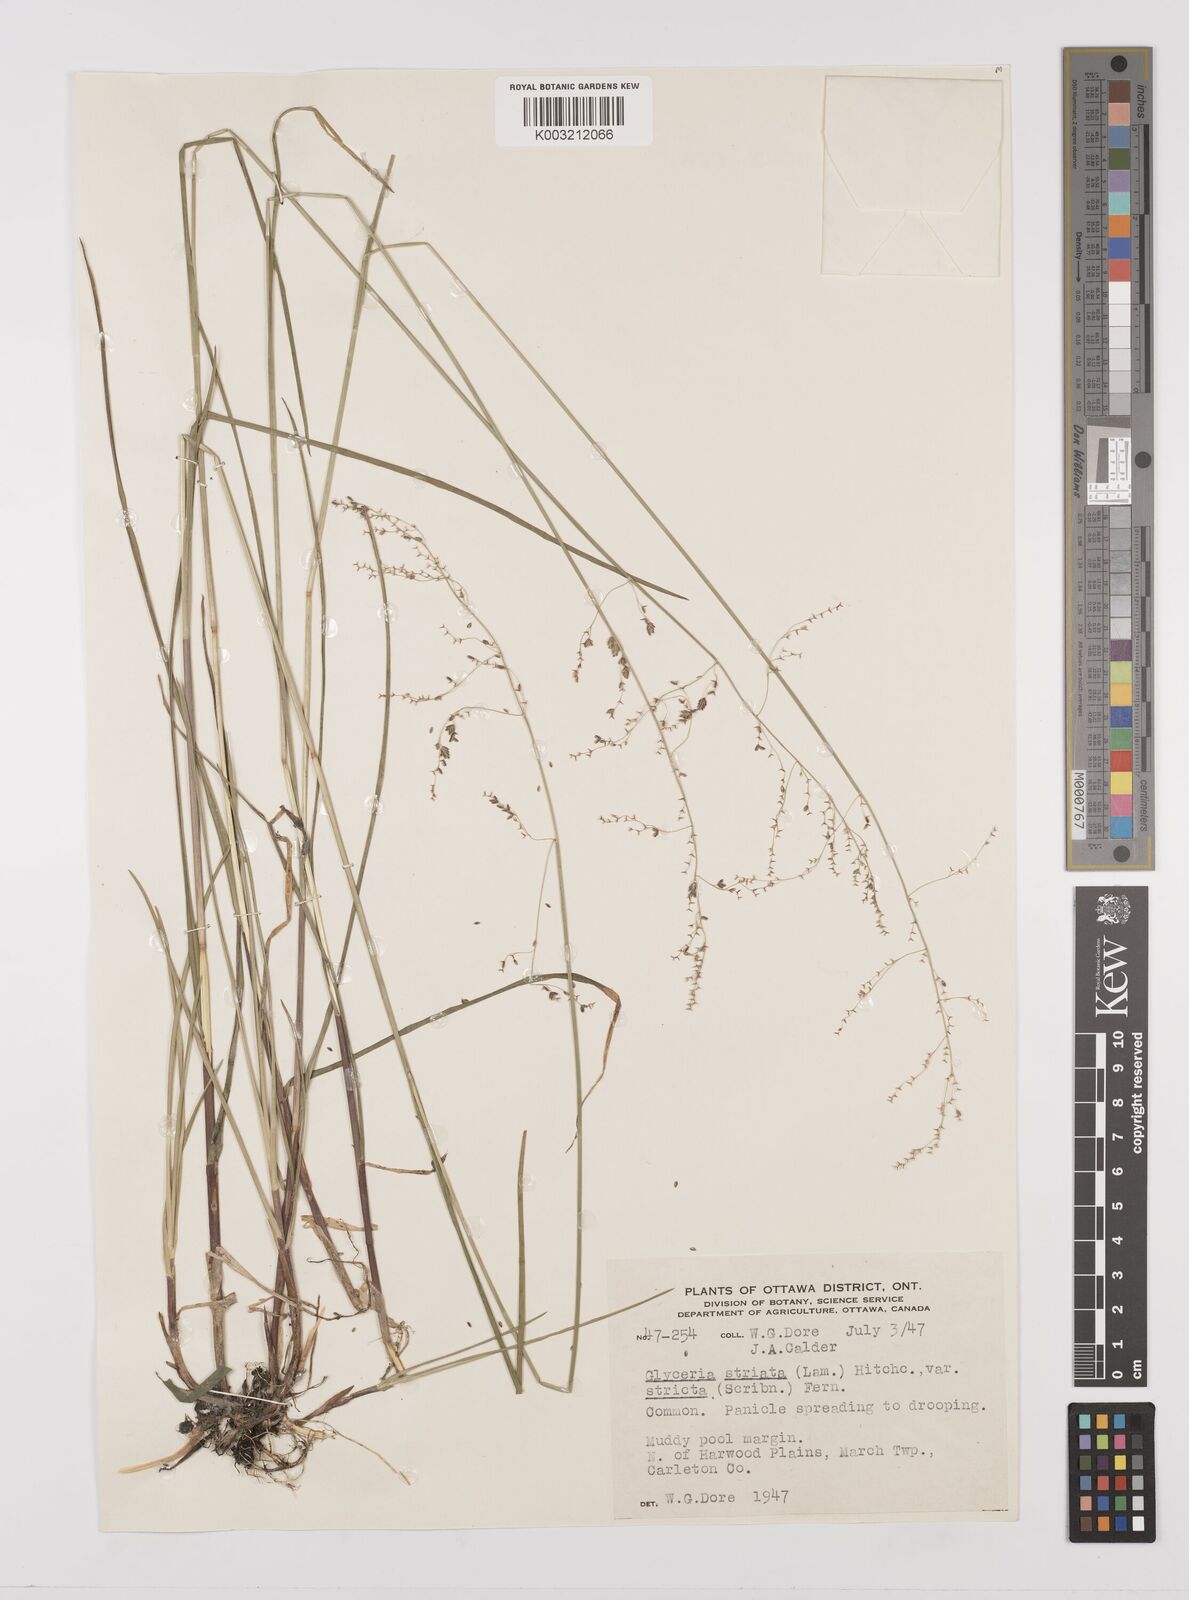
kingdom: Plantae
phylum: Tracheophyta
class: Liliopsida
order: Poales
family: Poaceae
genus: Glyceria
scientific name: Glyceria striata
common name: Fowl manna grass
